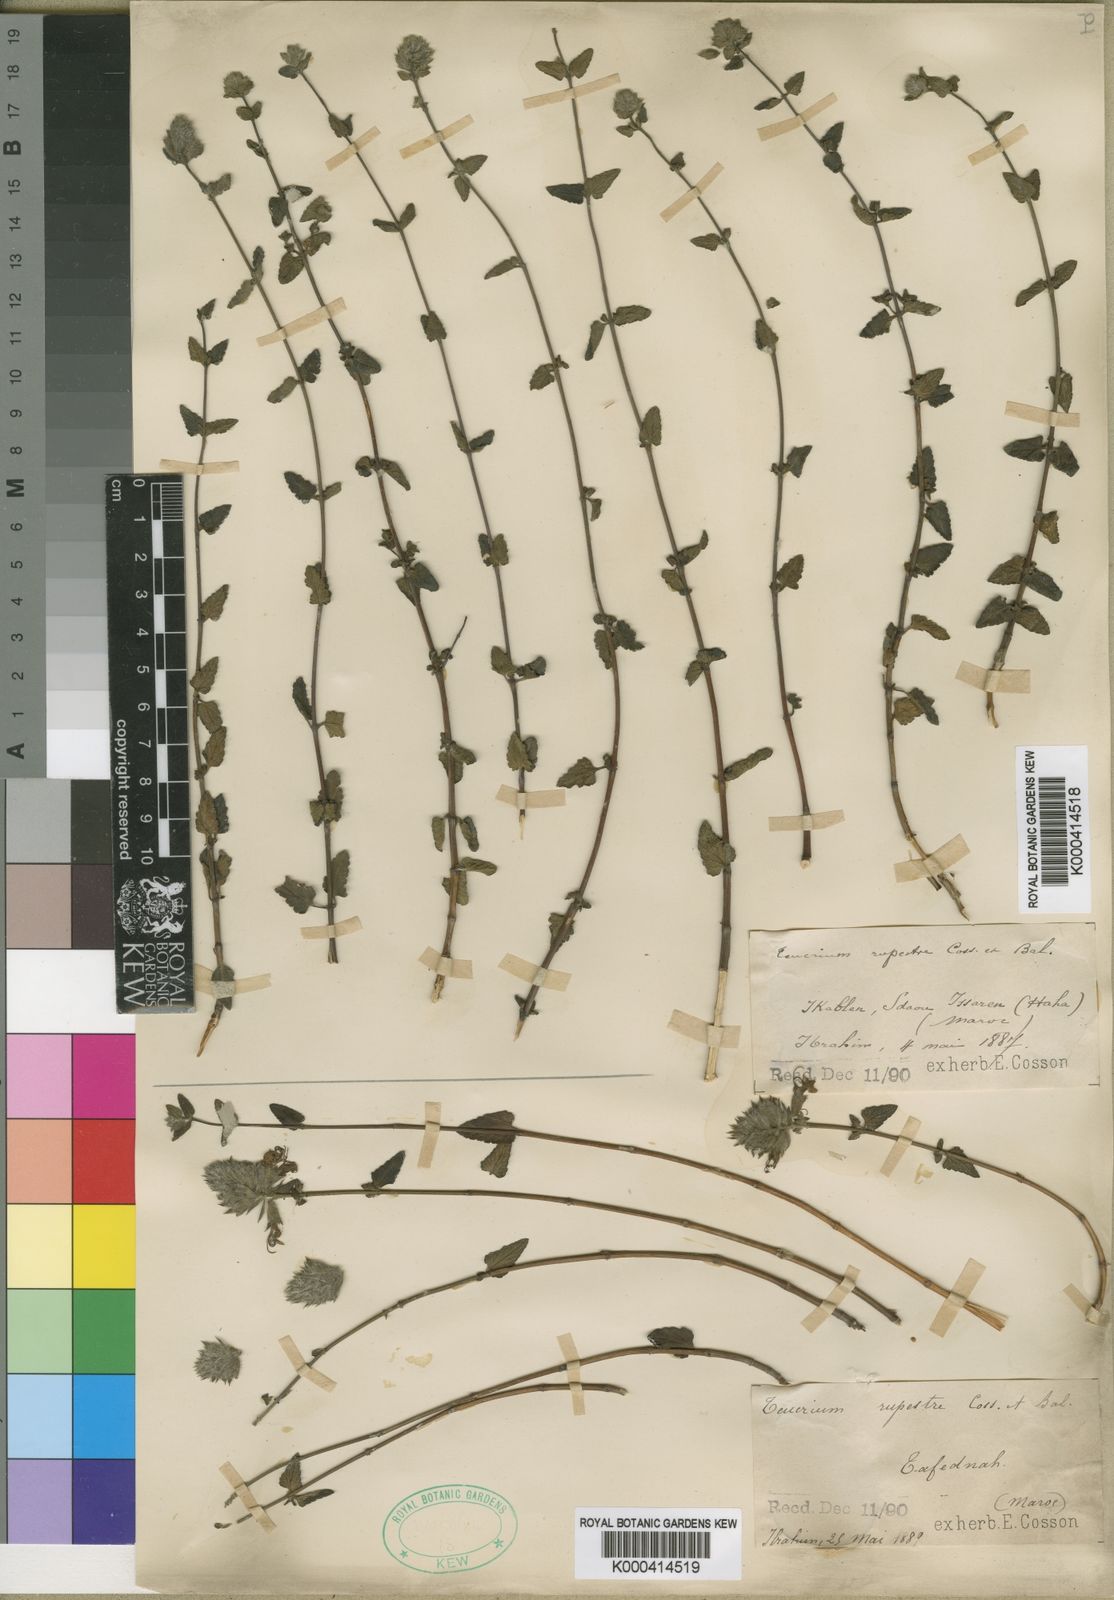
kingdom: Plantae
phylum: Tracheophyta
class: Magnoliopsida
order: Lamiales
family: Lamiaceae
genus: Teucrium
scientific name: Teucrium rupestre
